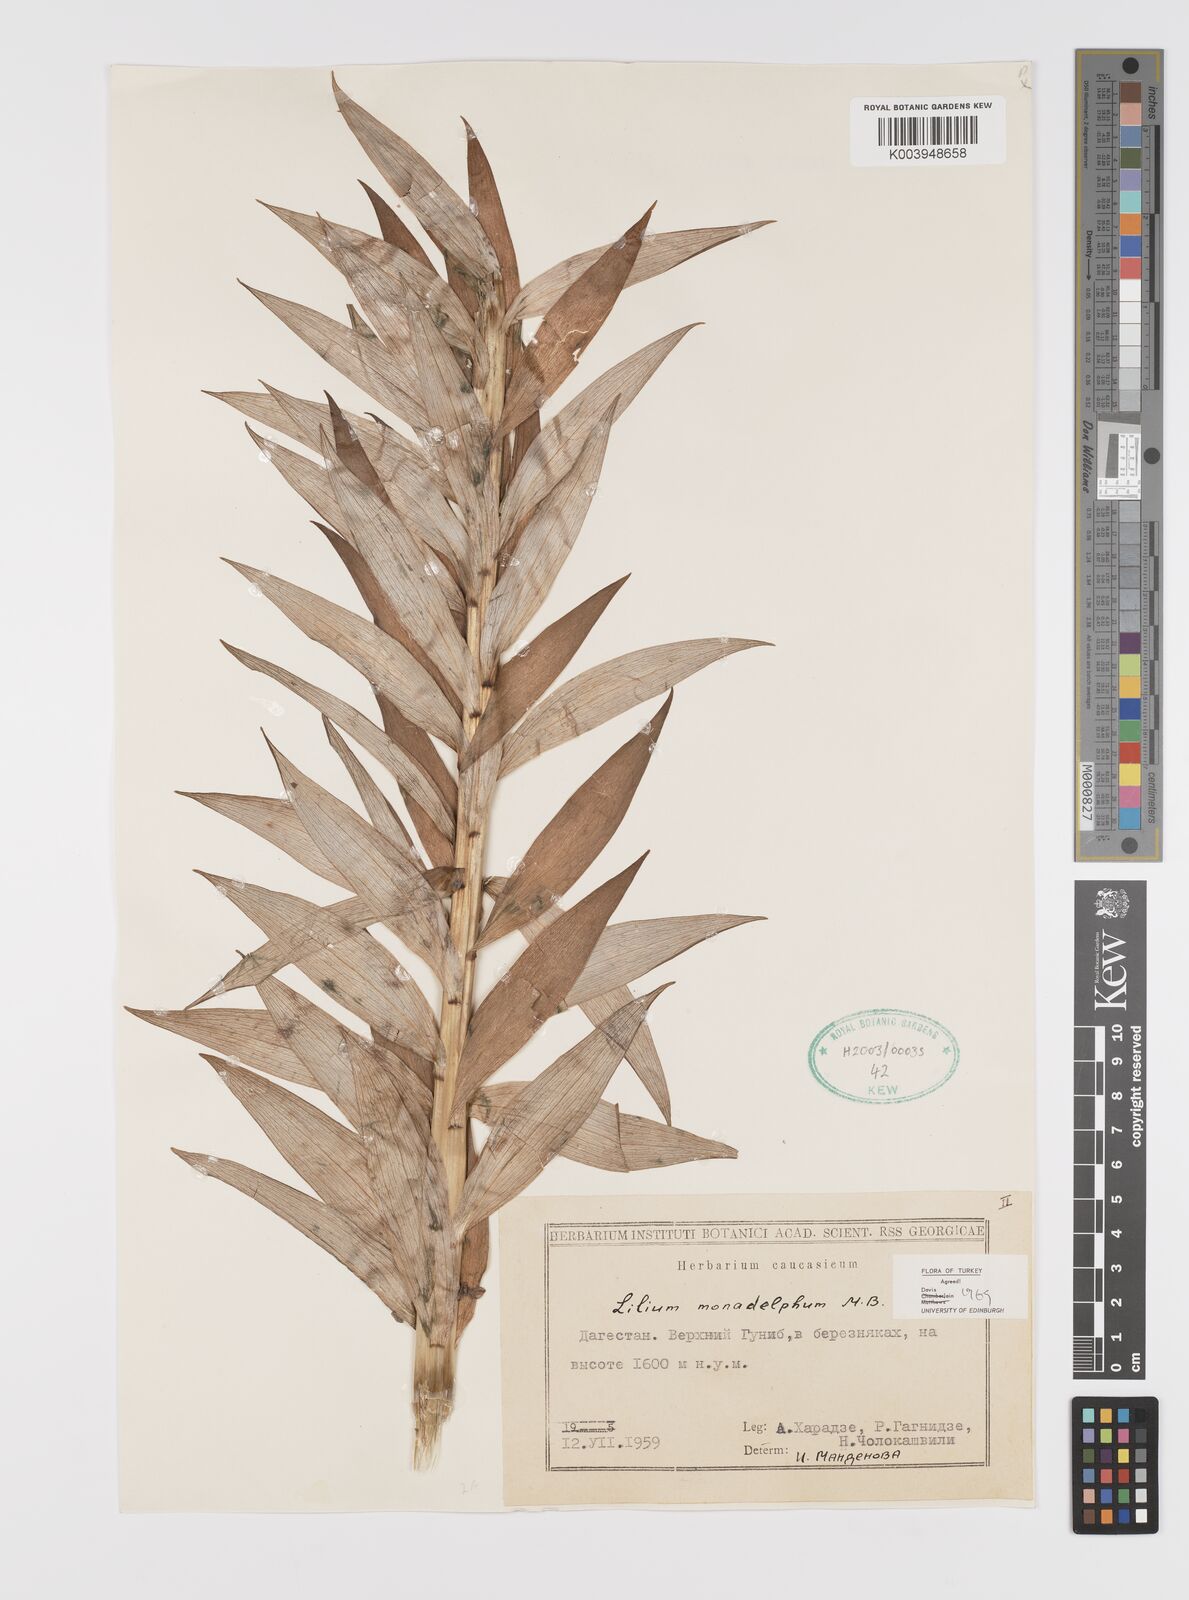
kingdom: Plantae
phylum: Tracheophyta
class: Liliopsida
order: Liliales
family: Liliaceae
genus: Lilium
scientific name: Lilium monadelphum
